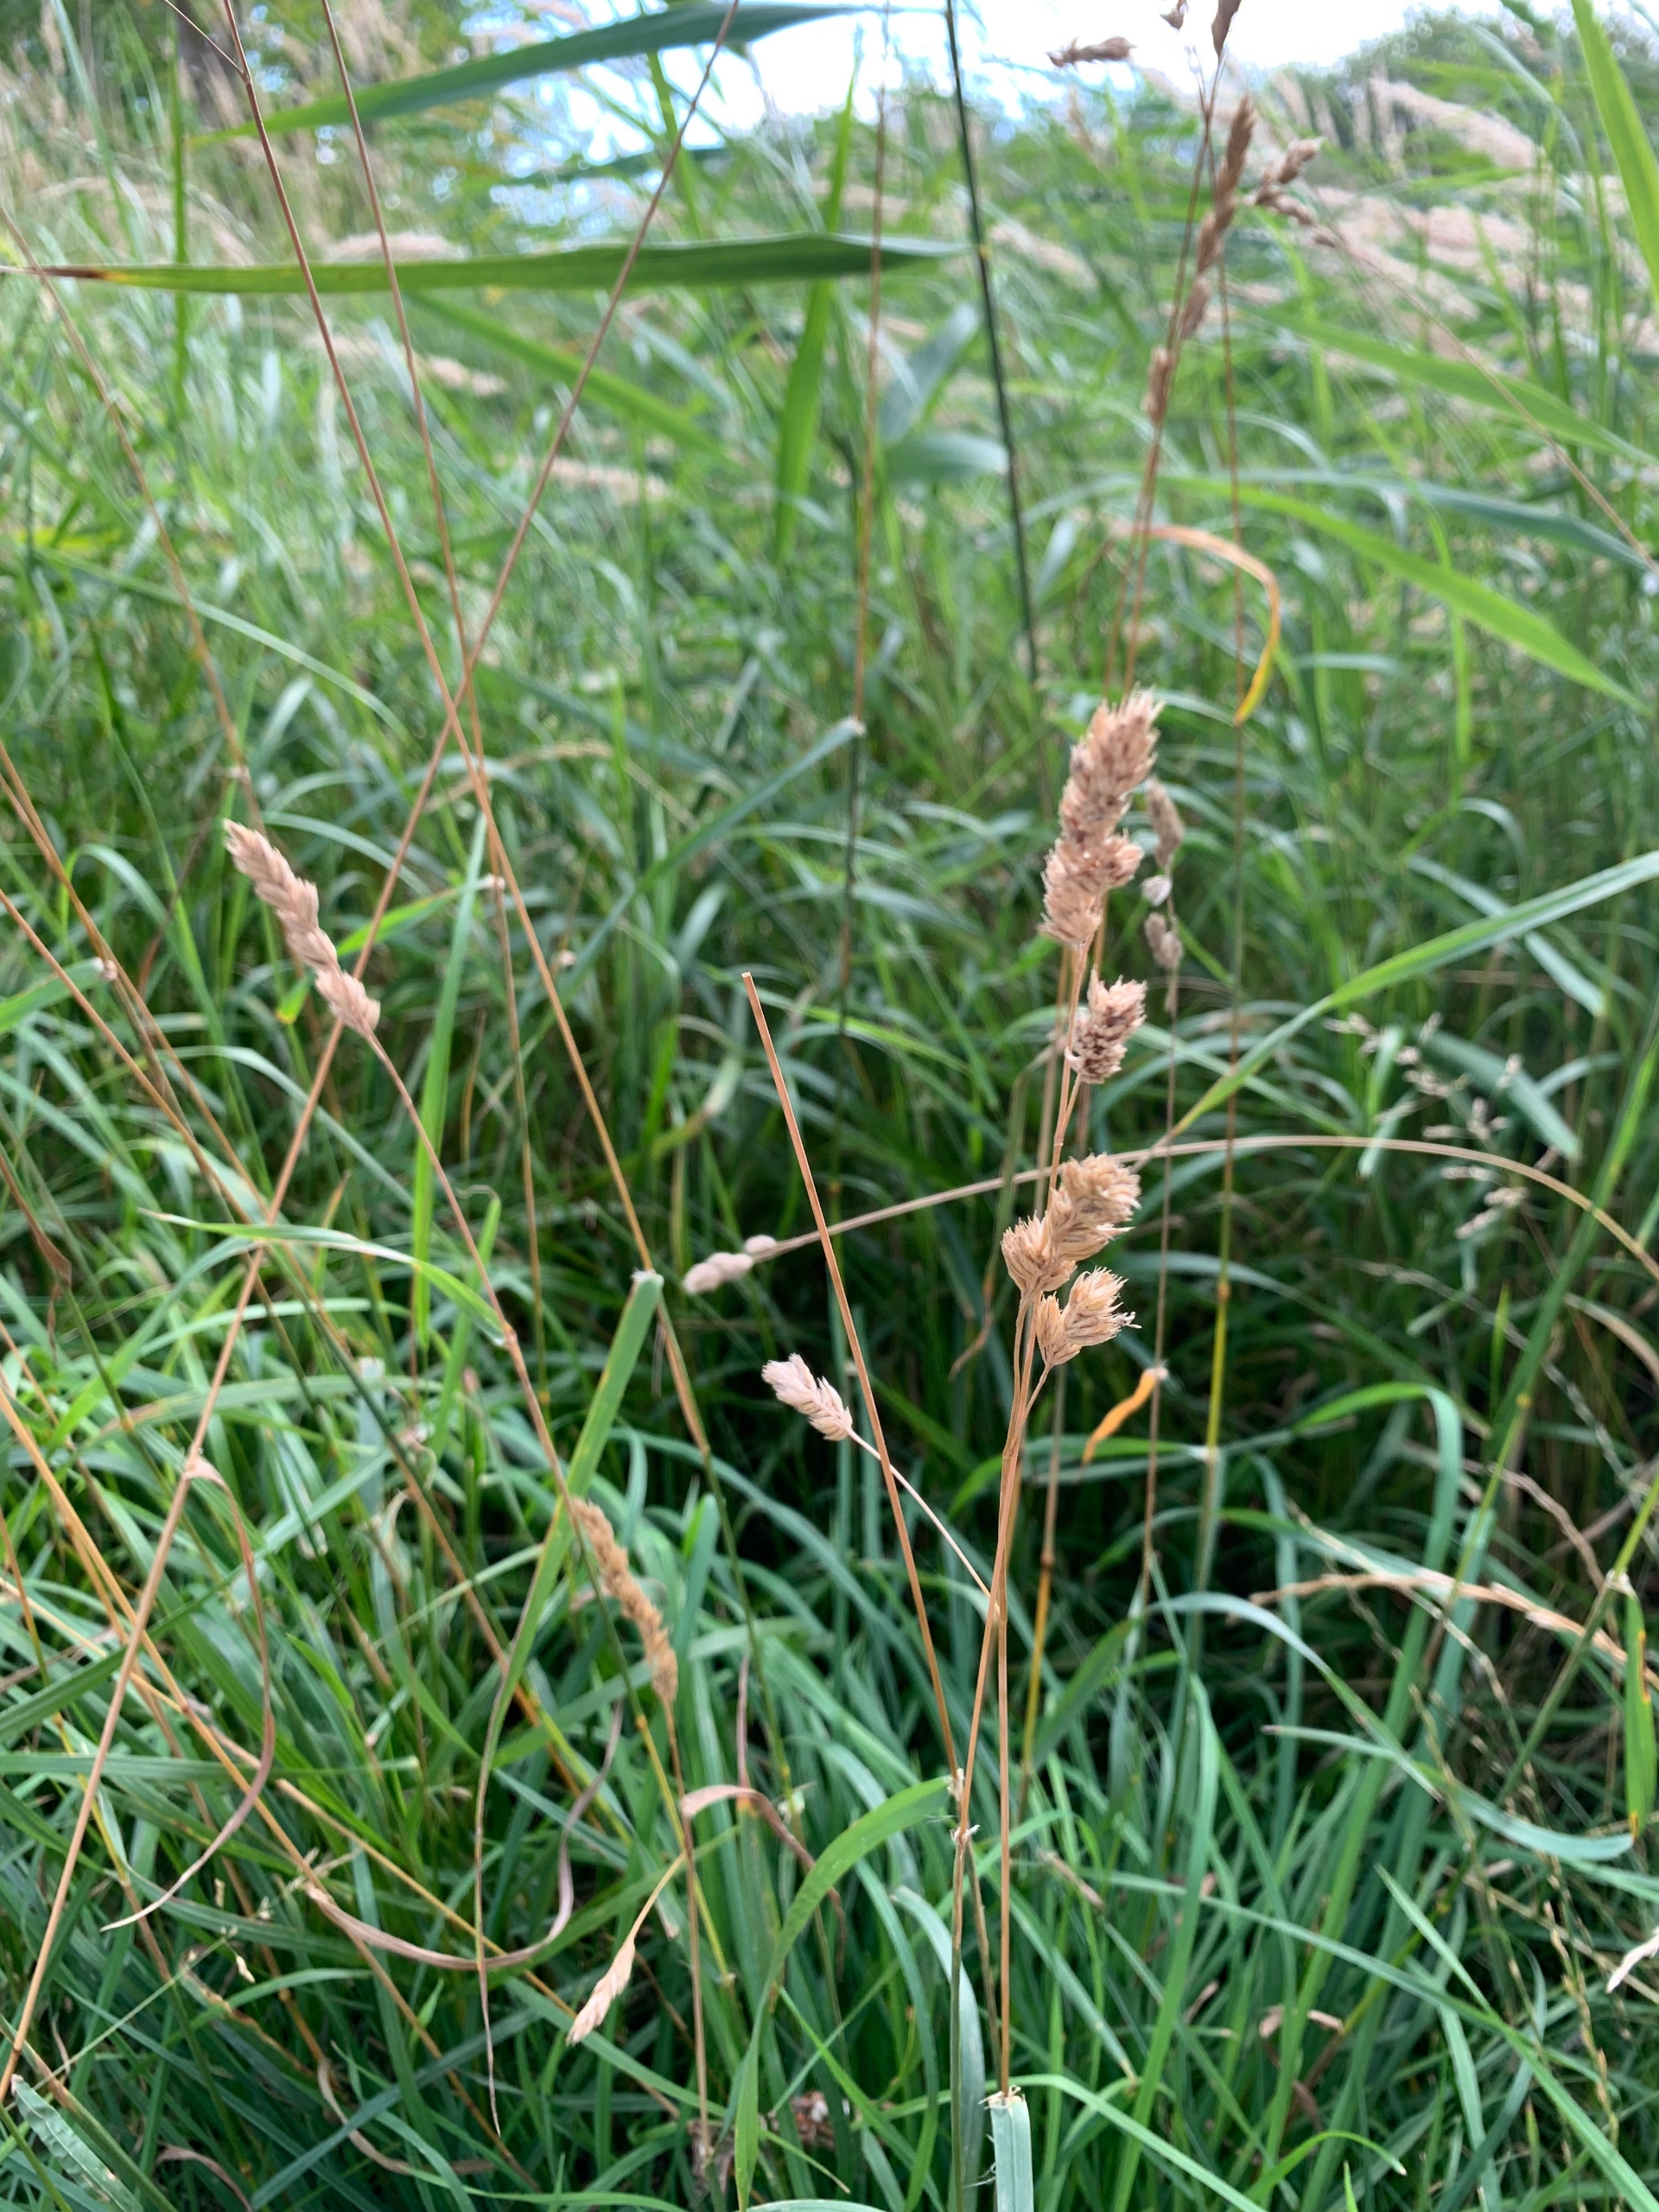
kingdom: Plantae
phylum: Tracheophyta
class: Liliopsida
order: Poales
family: Poaceae
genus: Dactylis
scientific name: Dactylis glomerata
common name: Almindelig hundegræs
